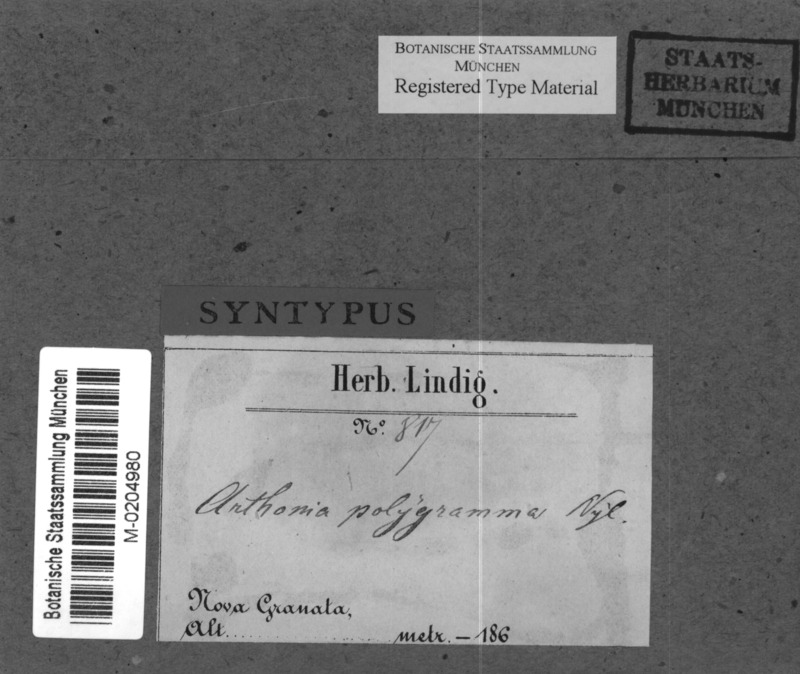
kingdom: Fungi
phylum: Ascomycota
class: Arthoniomycetes
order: Arthoniales
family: Arthoniaceae
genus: Arthonia
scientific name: Arthonia polygramma
